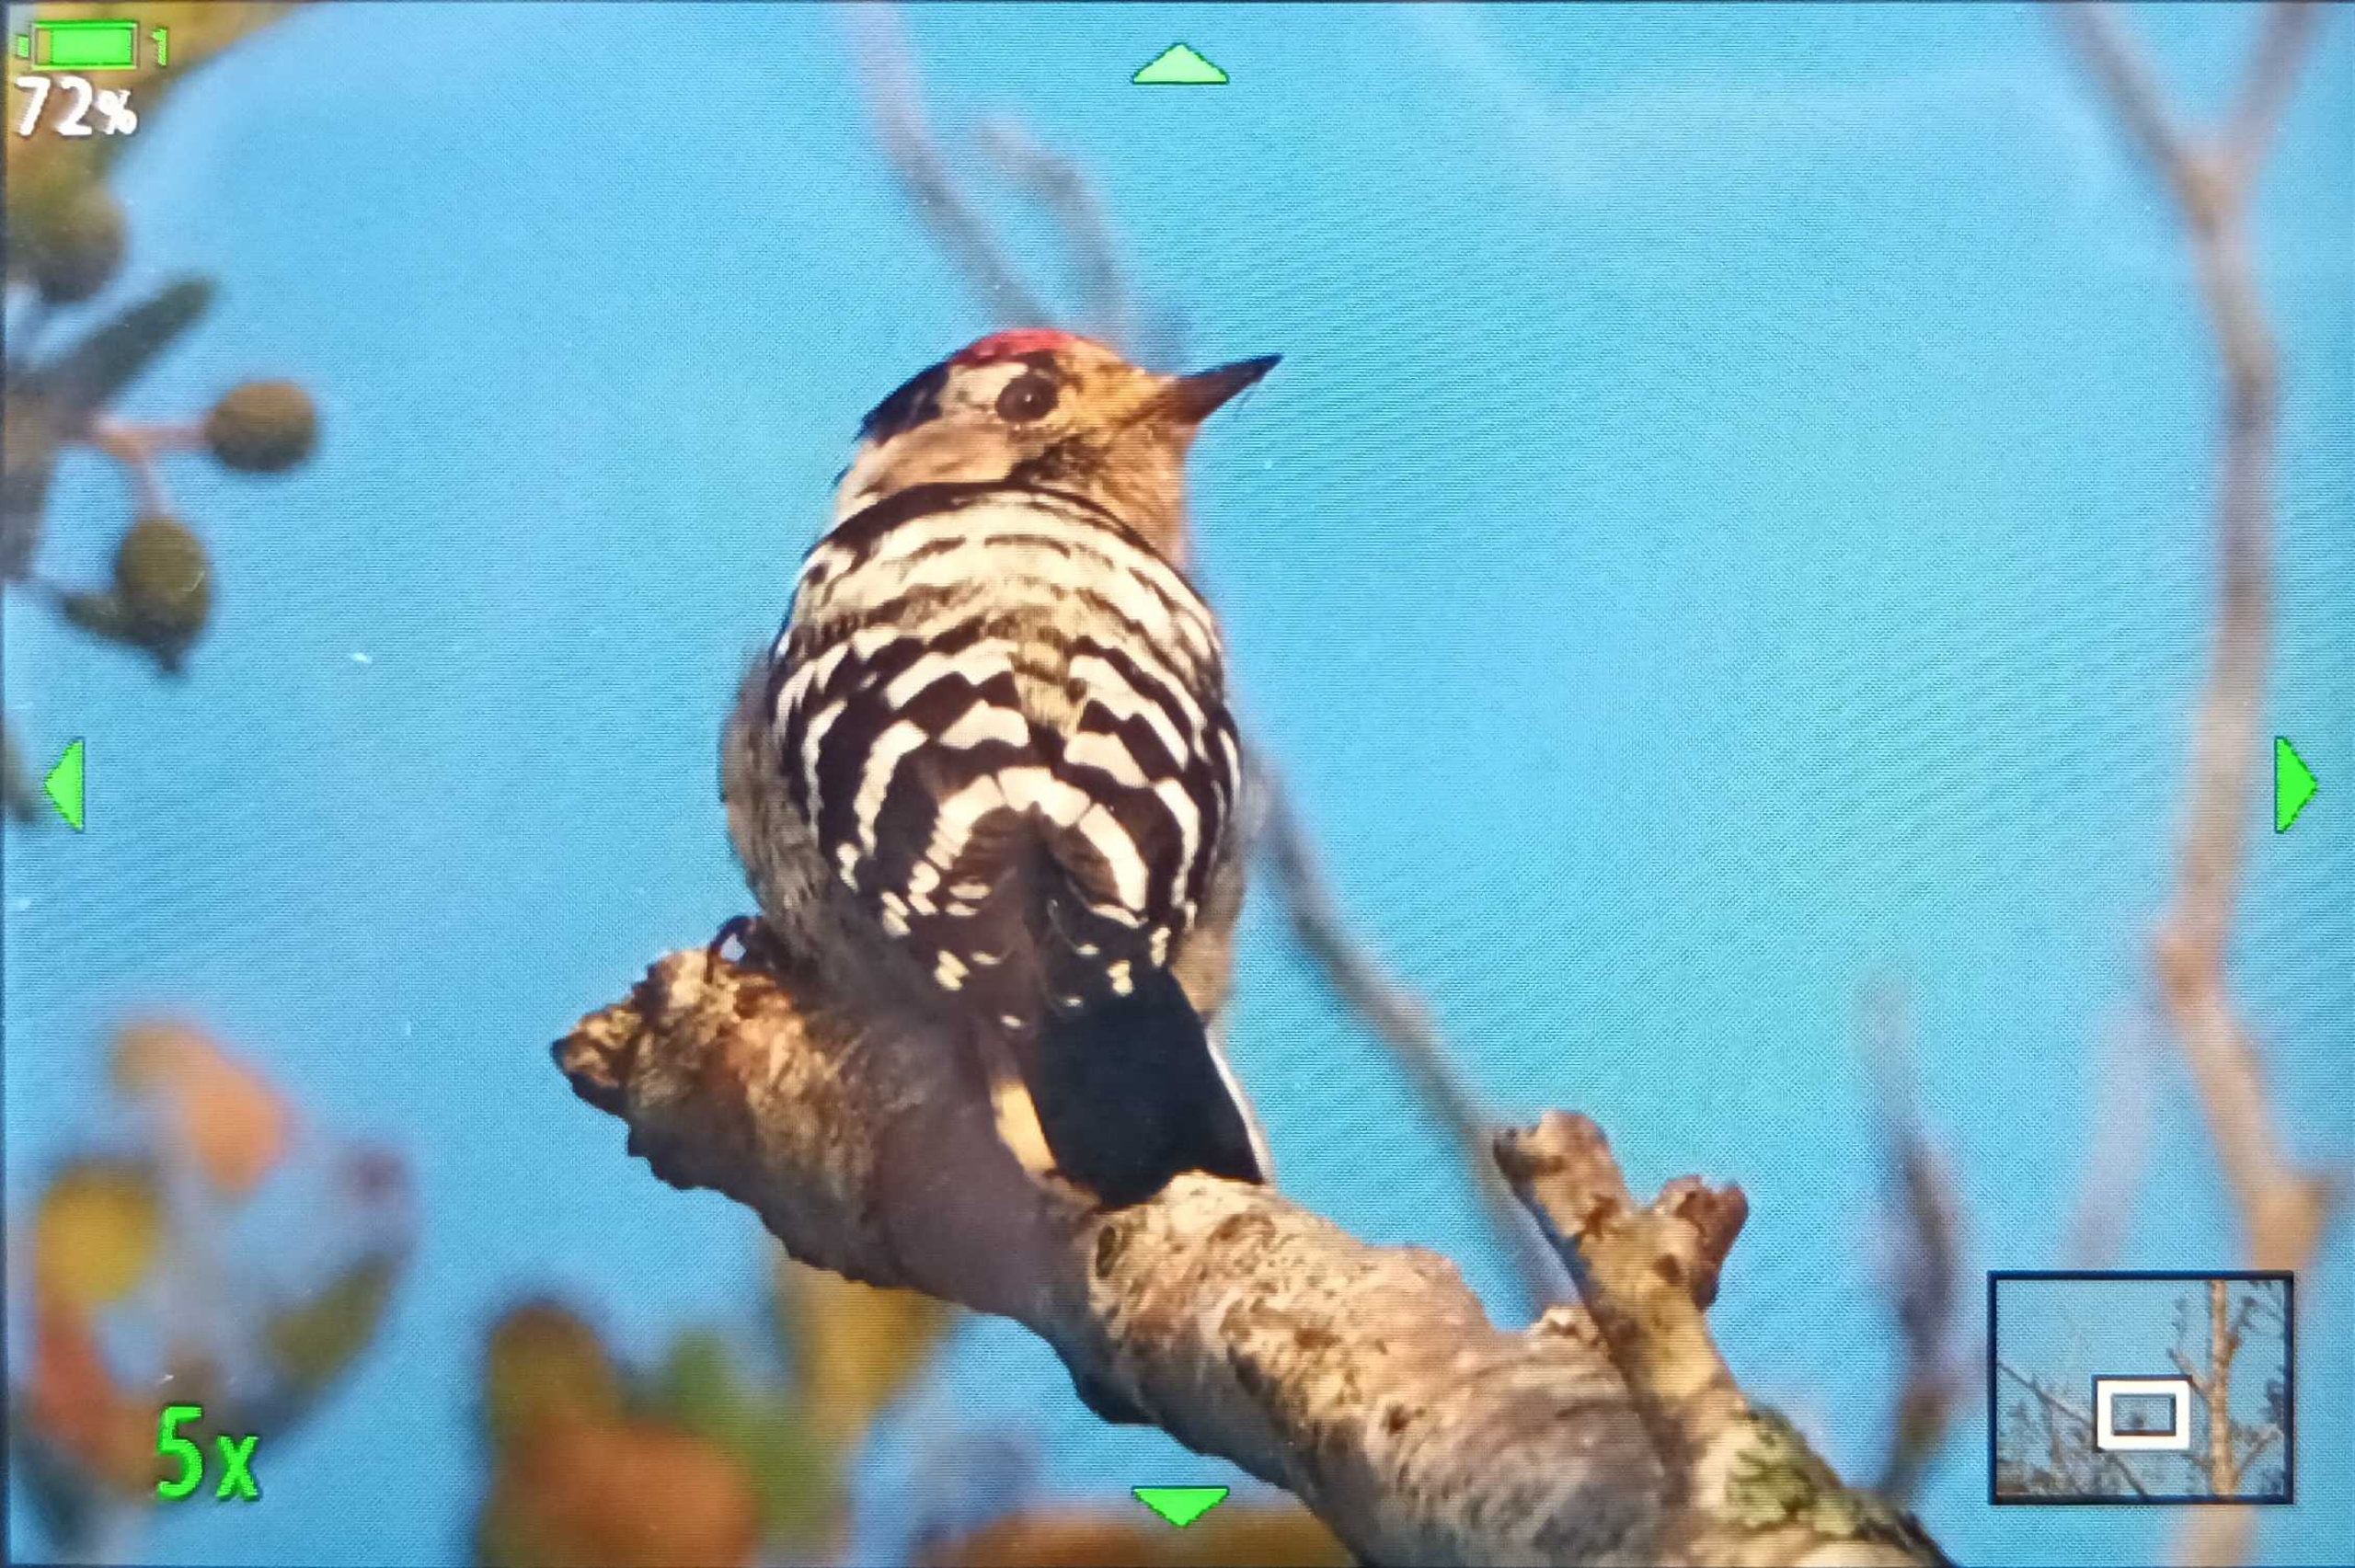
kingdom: Animalia
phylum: Chordata
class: Aves
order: Piciformes
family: Picidae
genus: Dryobates
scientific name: Dryobates minor
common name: Lille flagspætte
